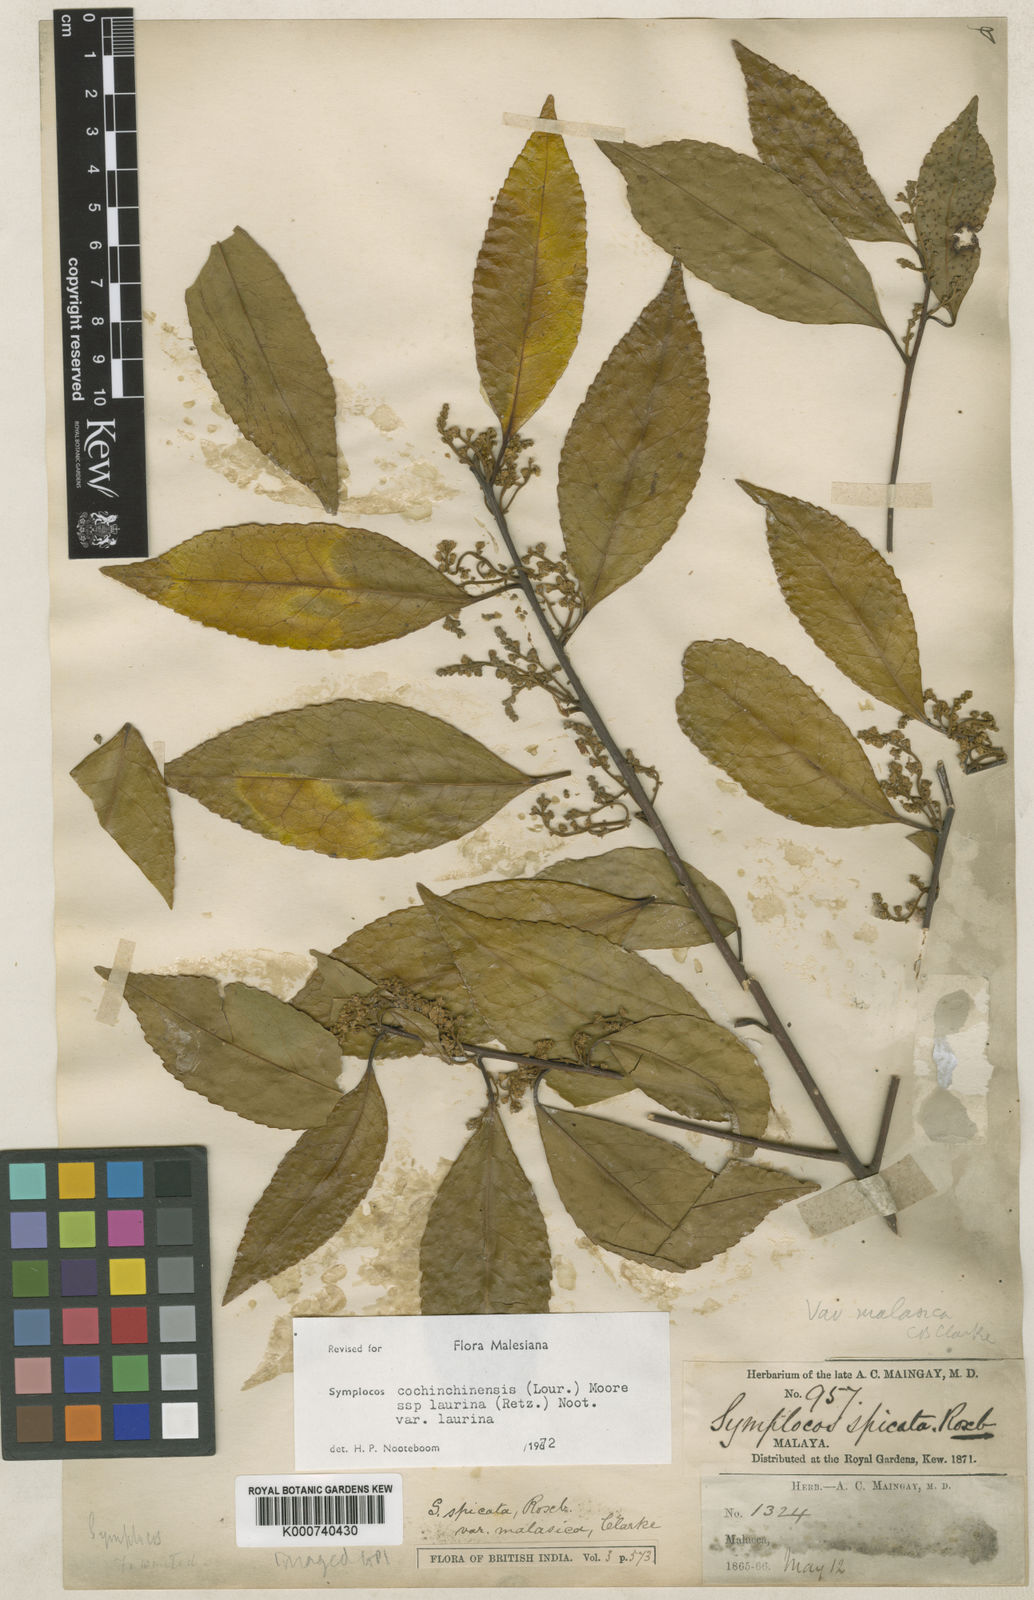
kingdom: Plantae
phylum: Tracheophyta
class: Magnoliopsida
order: Ericales
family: Symplocaceae
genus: Symplocos
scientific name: Symplocos acuminata
